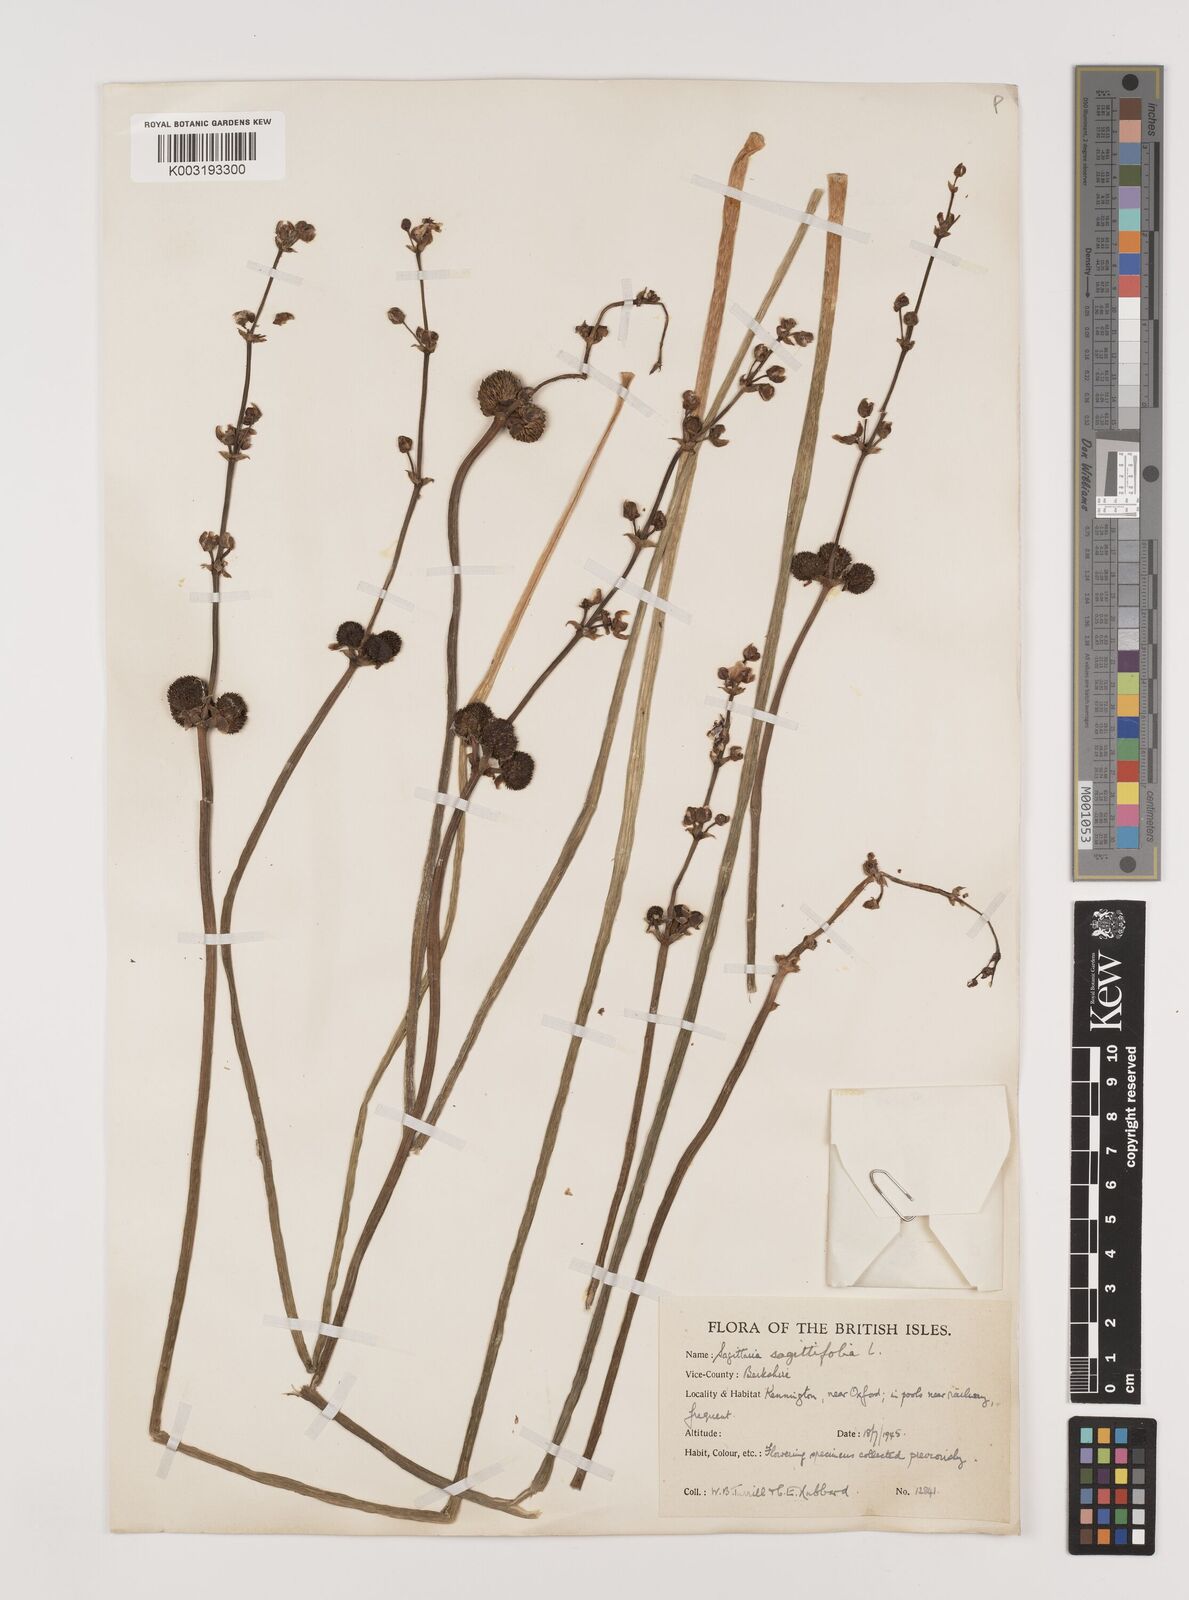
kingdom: Plantae
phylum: Tracheophyta
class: Liliopsida
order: Alismatales
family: Alismataceae
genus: Sagittaria
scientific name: Sagittaria sagittifolia
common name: Arrowhead
